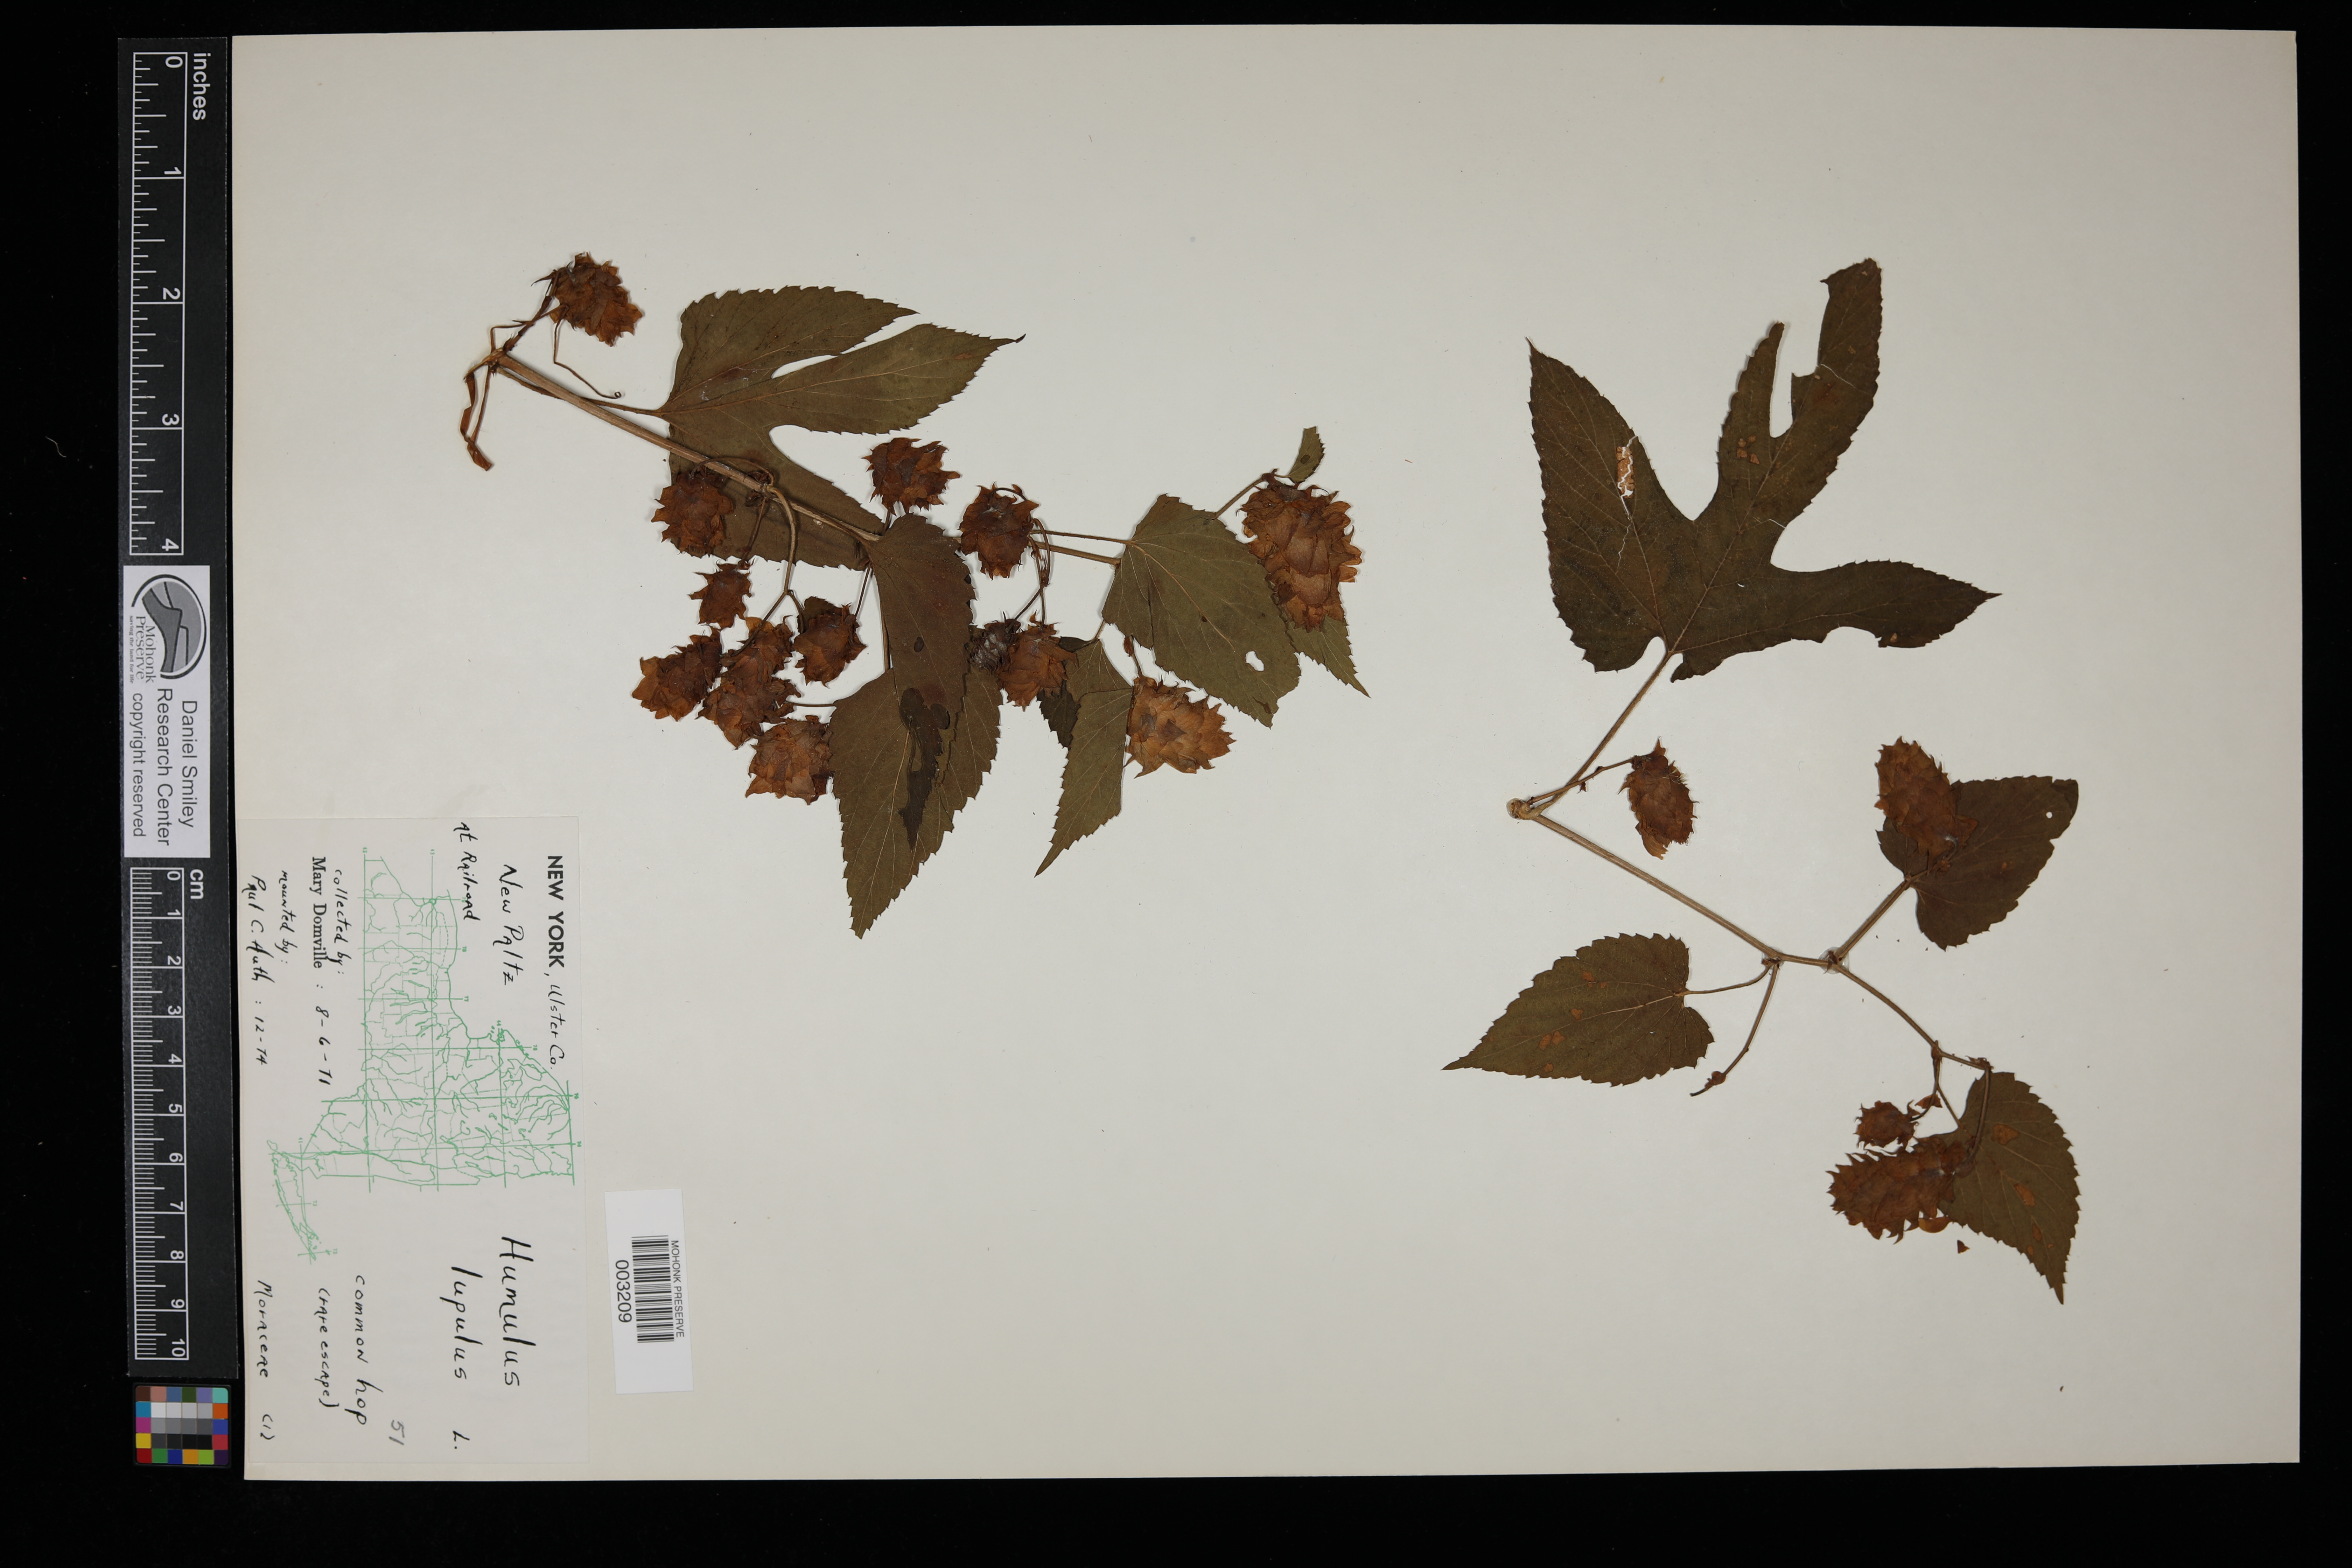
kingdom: Plantae
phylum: Tracheophyta
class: Magnoliopsida
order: Rosales
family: Cannabaceae
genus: Humulus
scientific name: Humulus lupulus
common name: Hop
